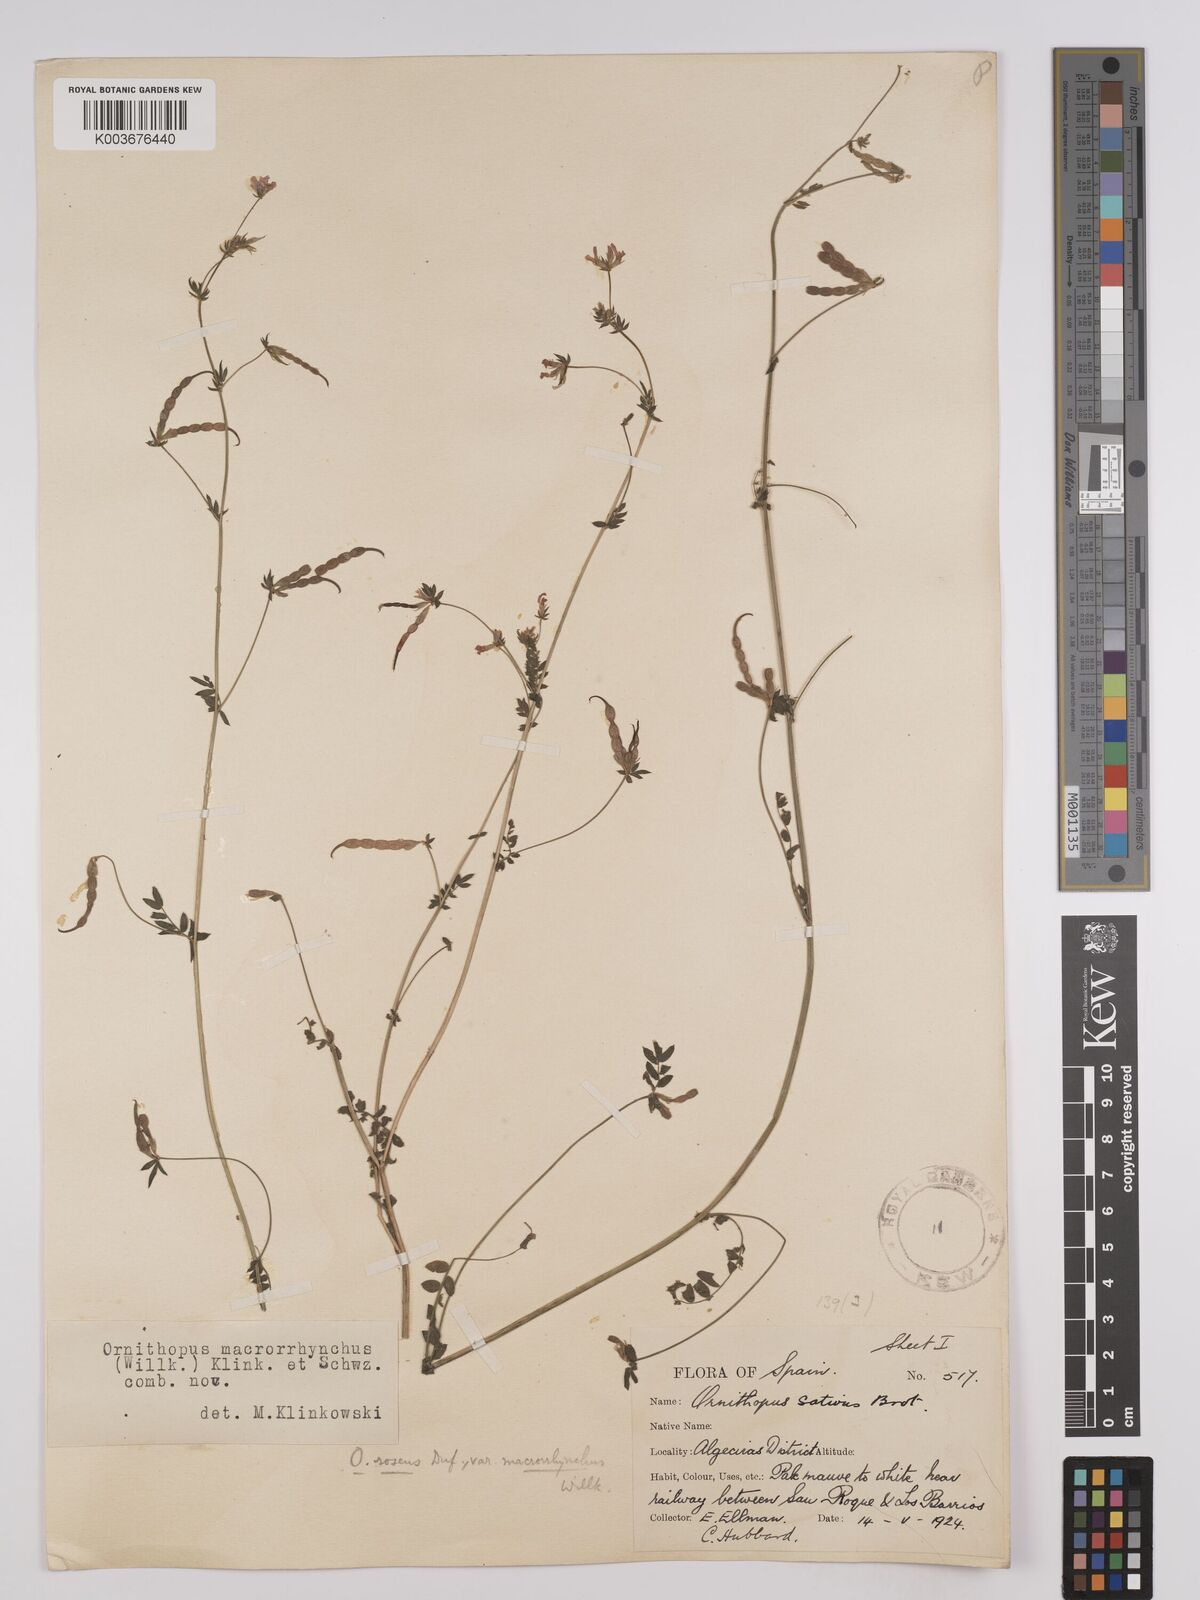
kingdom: Plantae
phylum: Tracheophyta
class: Magnoliopsida
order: Fabales
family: Fabaceae
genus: Ornithopus
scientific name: Ornithopus sativus
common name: Serradella
